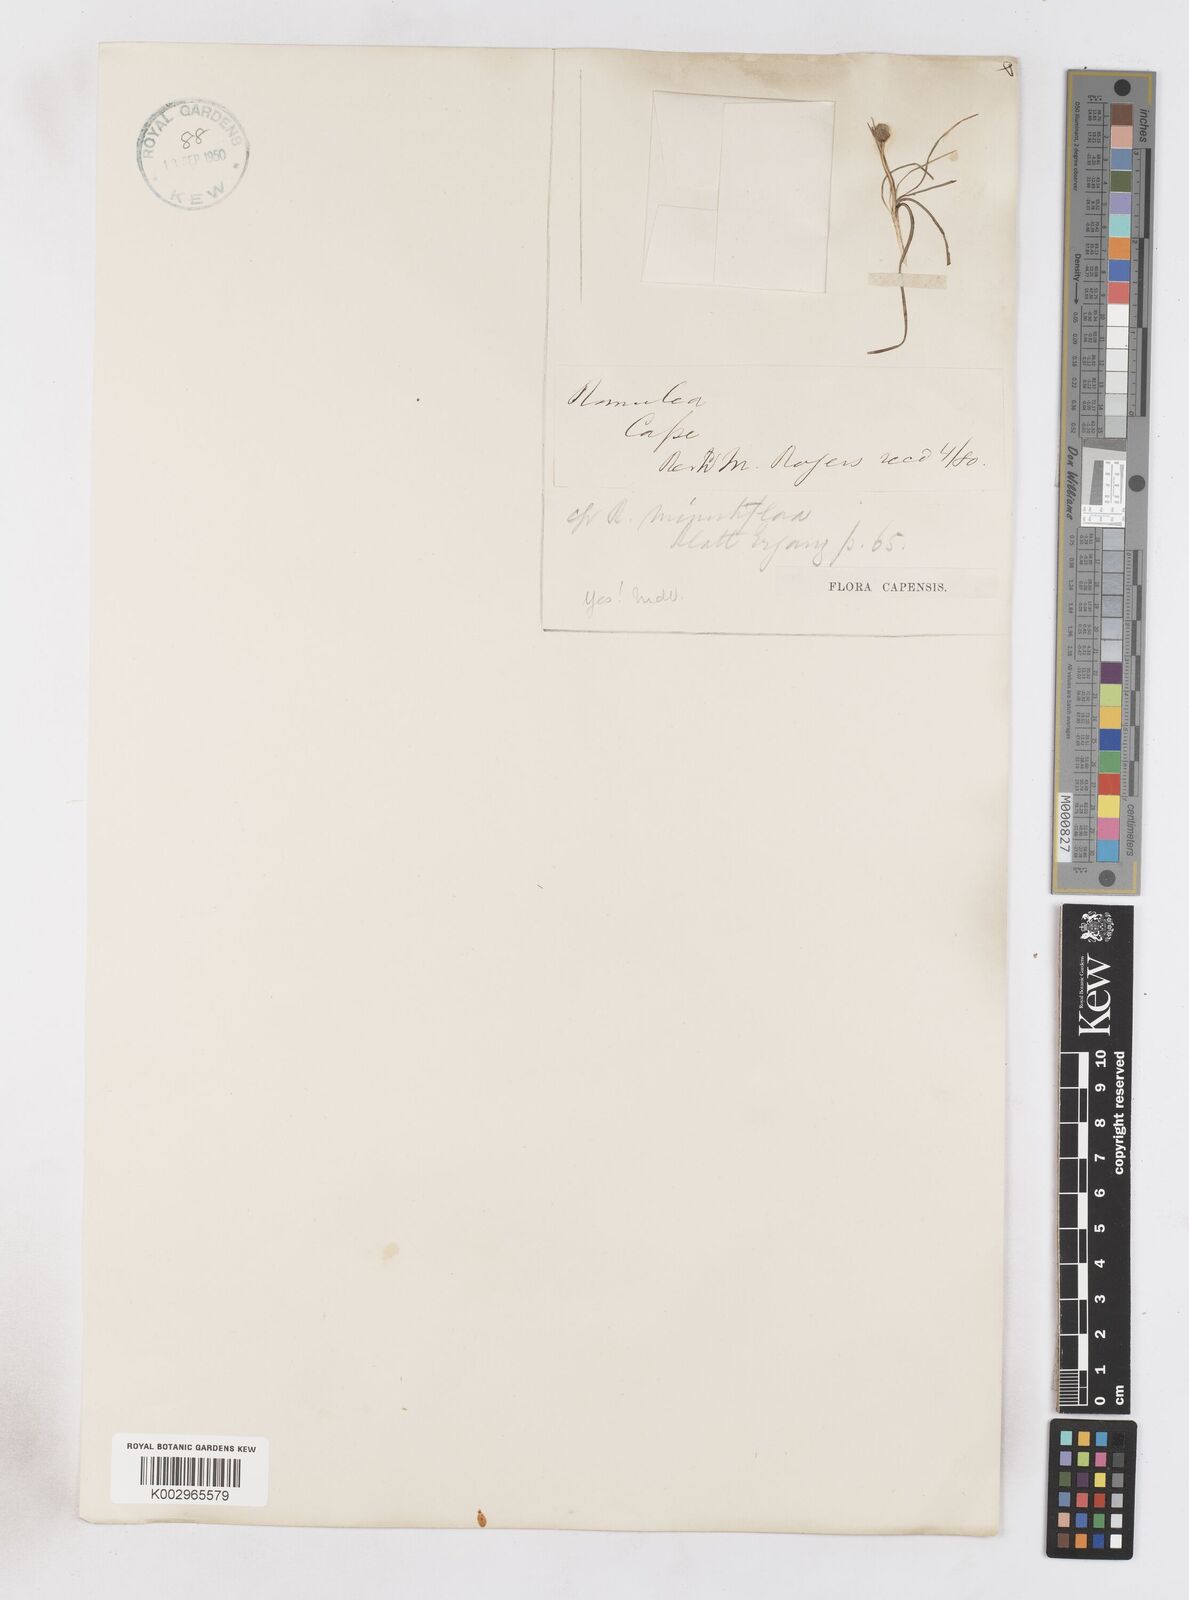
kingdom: Plantae
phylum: Tracheophyta
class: Liliopsida
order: Asparagales
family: Iridaceae
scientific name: Iridaceae
